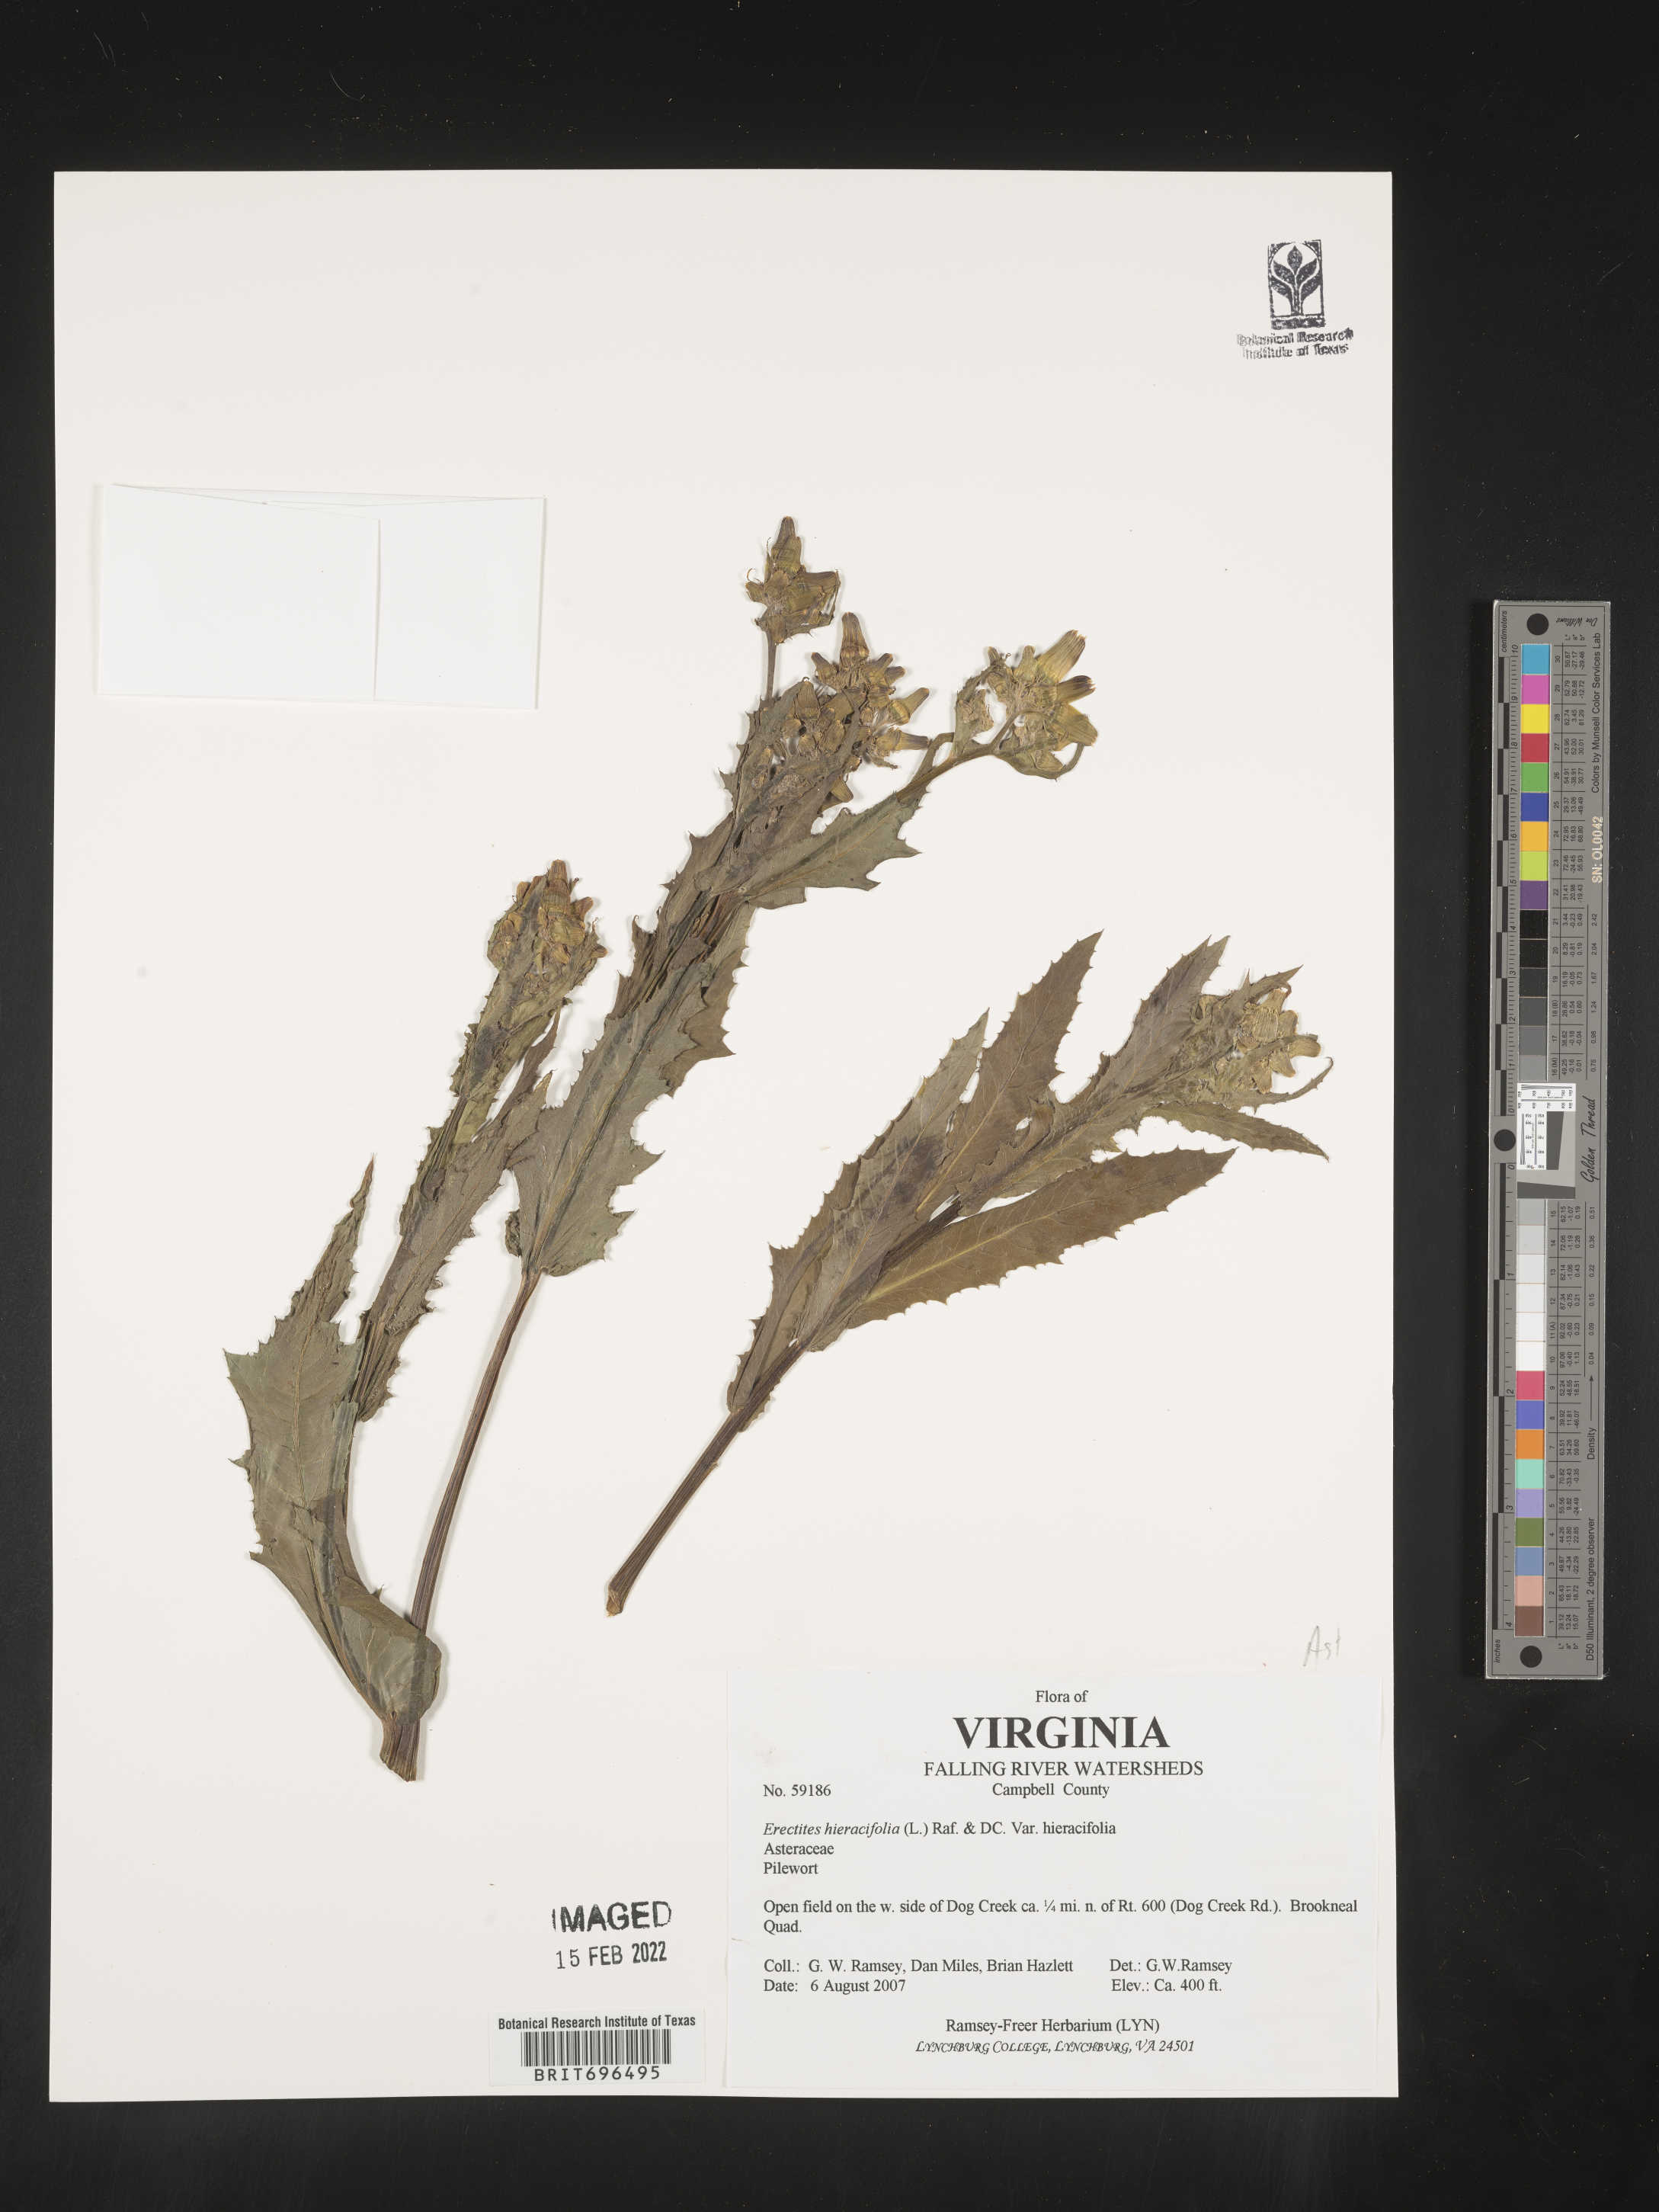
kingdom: Plantae
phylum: Tracheophyta
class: Magnoliopsida
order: Asterales
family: Asteraceae
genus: Erechtites
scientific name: Erechtites hieraciifolius
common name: American burnweed
